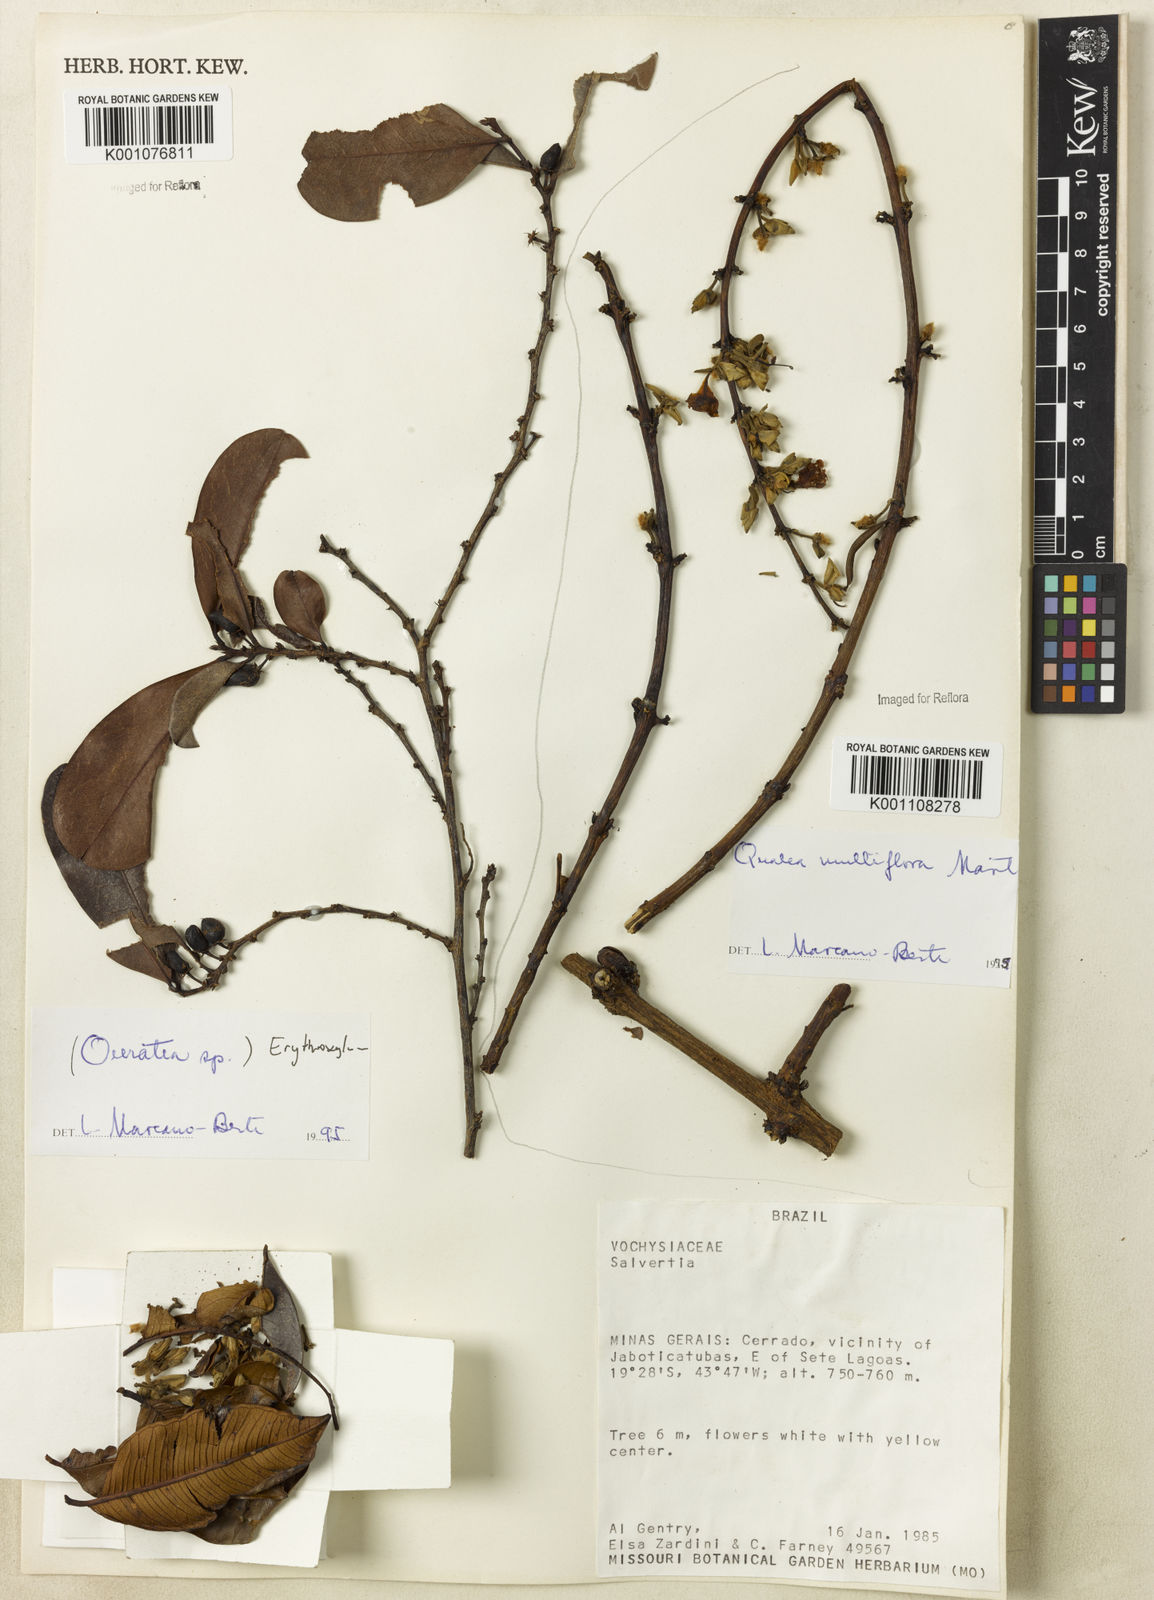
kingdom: Plantae
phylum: Tracheophyta
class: Magnoliopsida
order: Myrtales
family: Vochysiaceae
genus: Qualea
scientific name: Qualea multiflora
